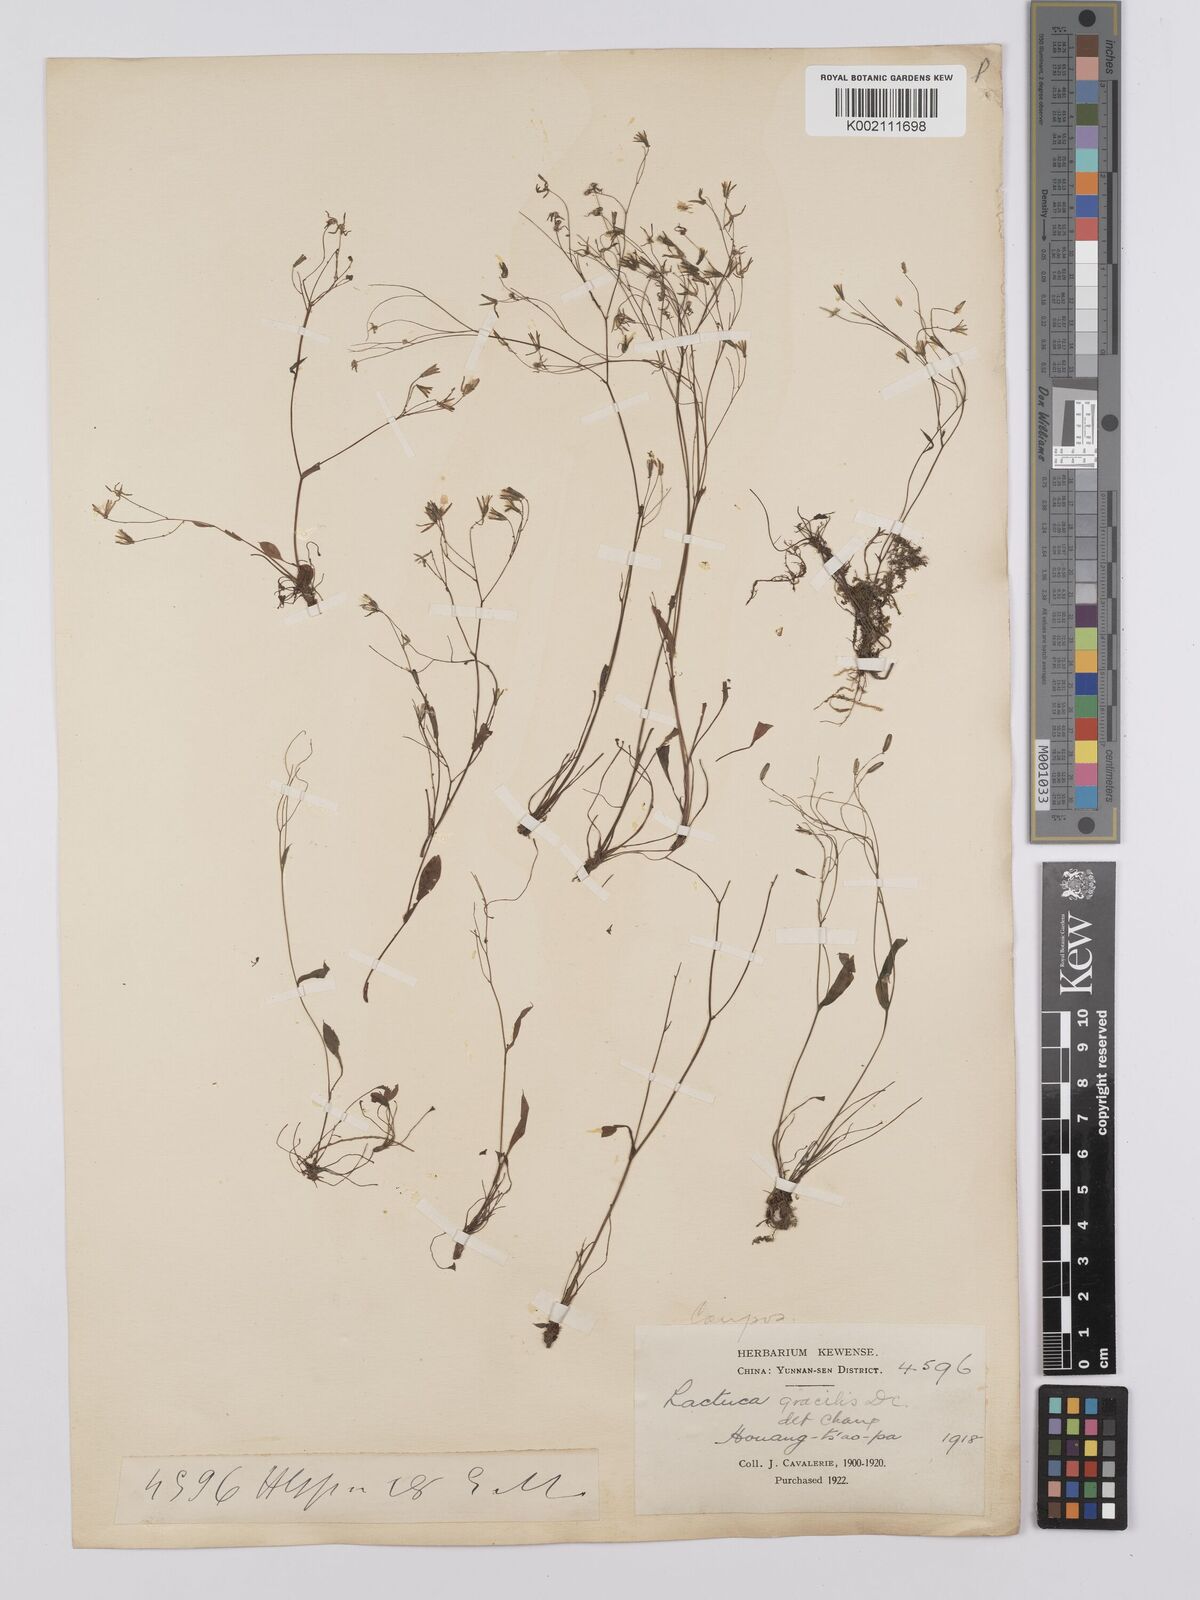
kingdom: Plantae
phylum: Tracheophyta
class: Magnoliopsida
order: Asterales
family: Asteraceae
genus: Ixeridium
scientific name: Ixeridium
